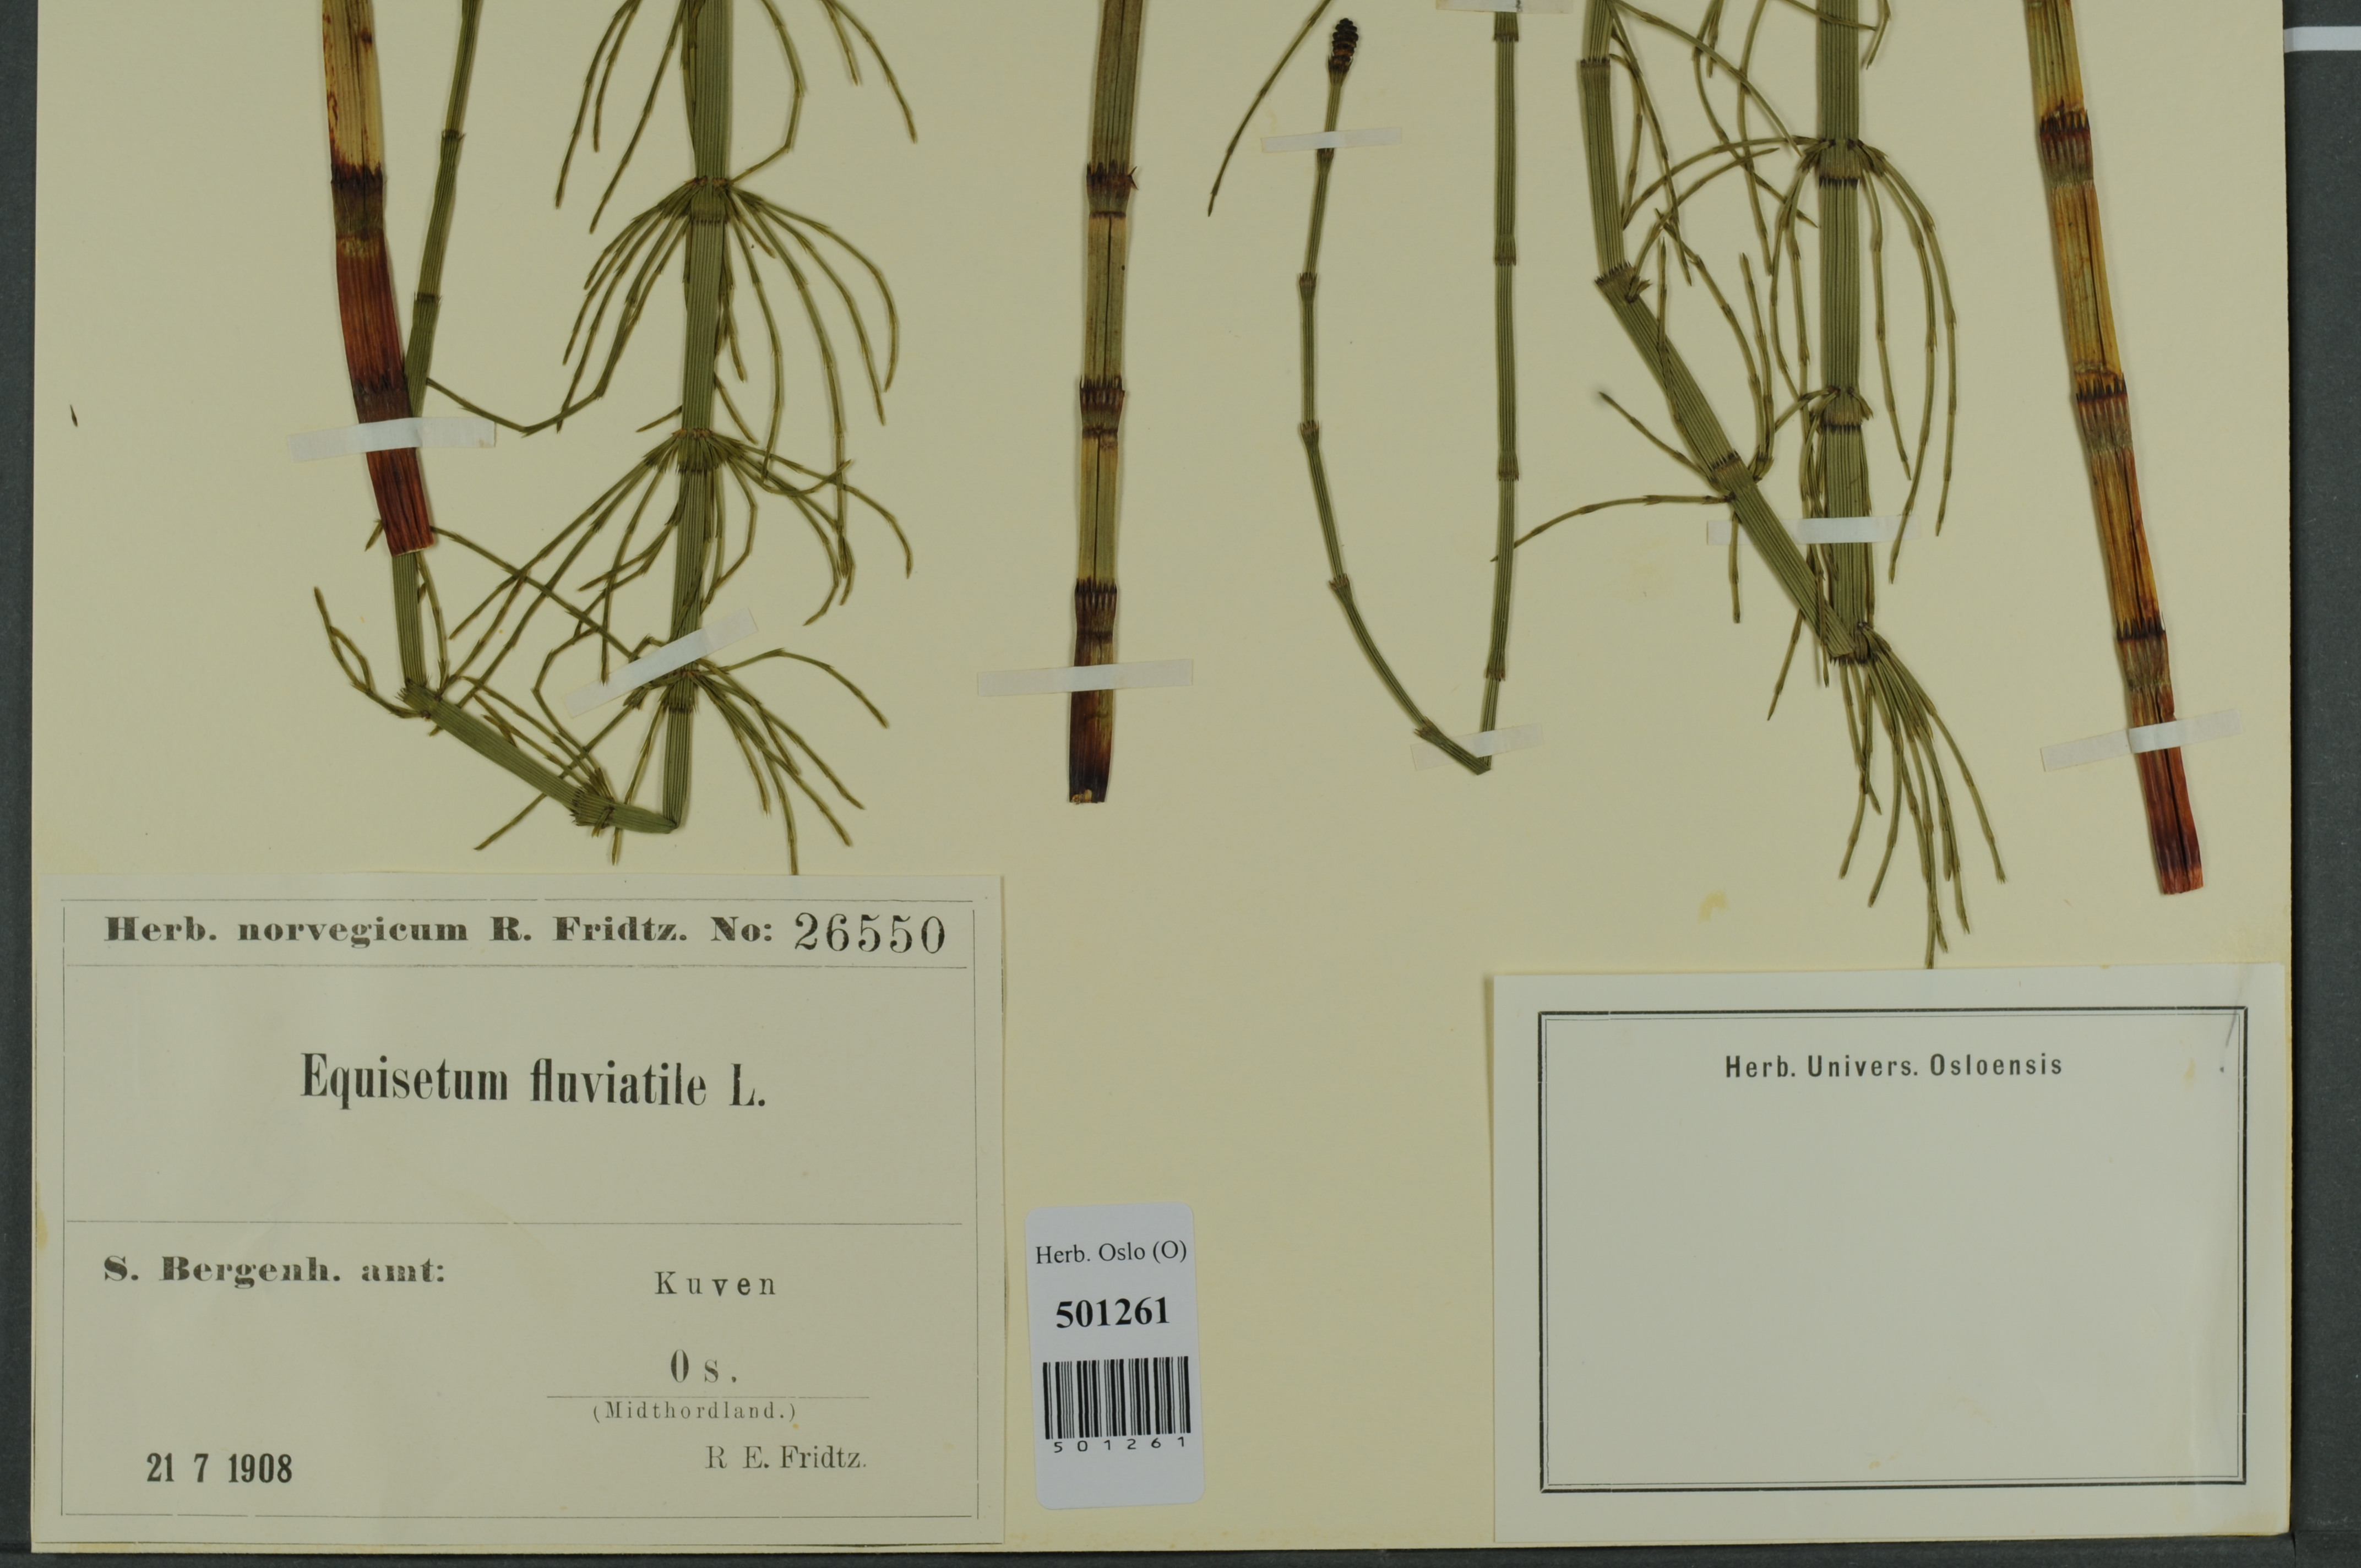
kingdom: Plantae
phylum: Tracheophyta
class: Polypodiopsida
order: Equisetales
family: Equisetaceae
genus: Equisetum
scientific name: Equisetum fluviatile
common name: Water horsetail
